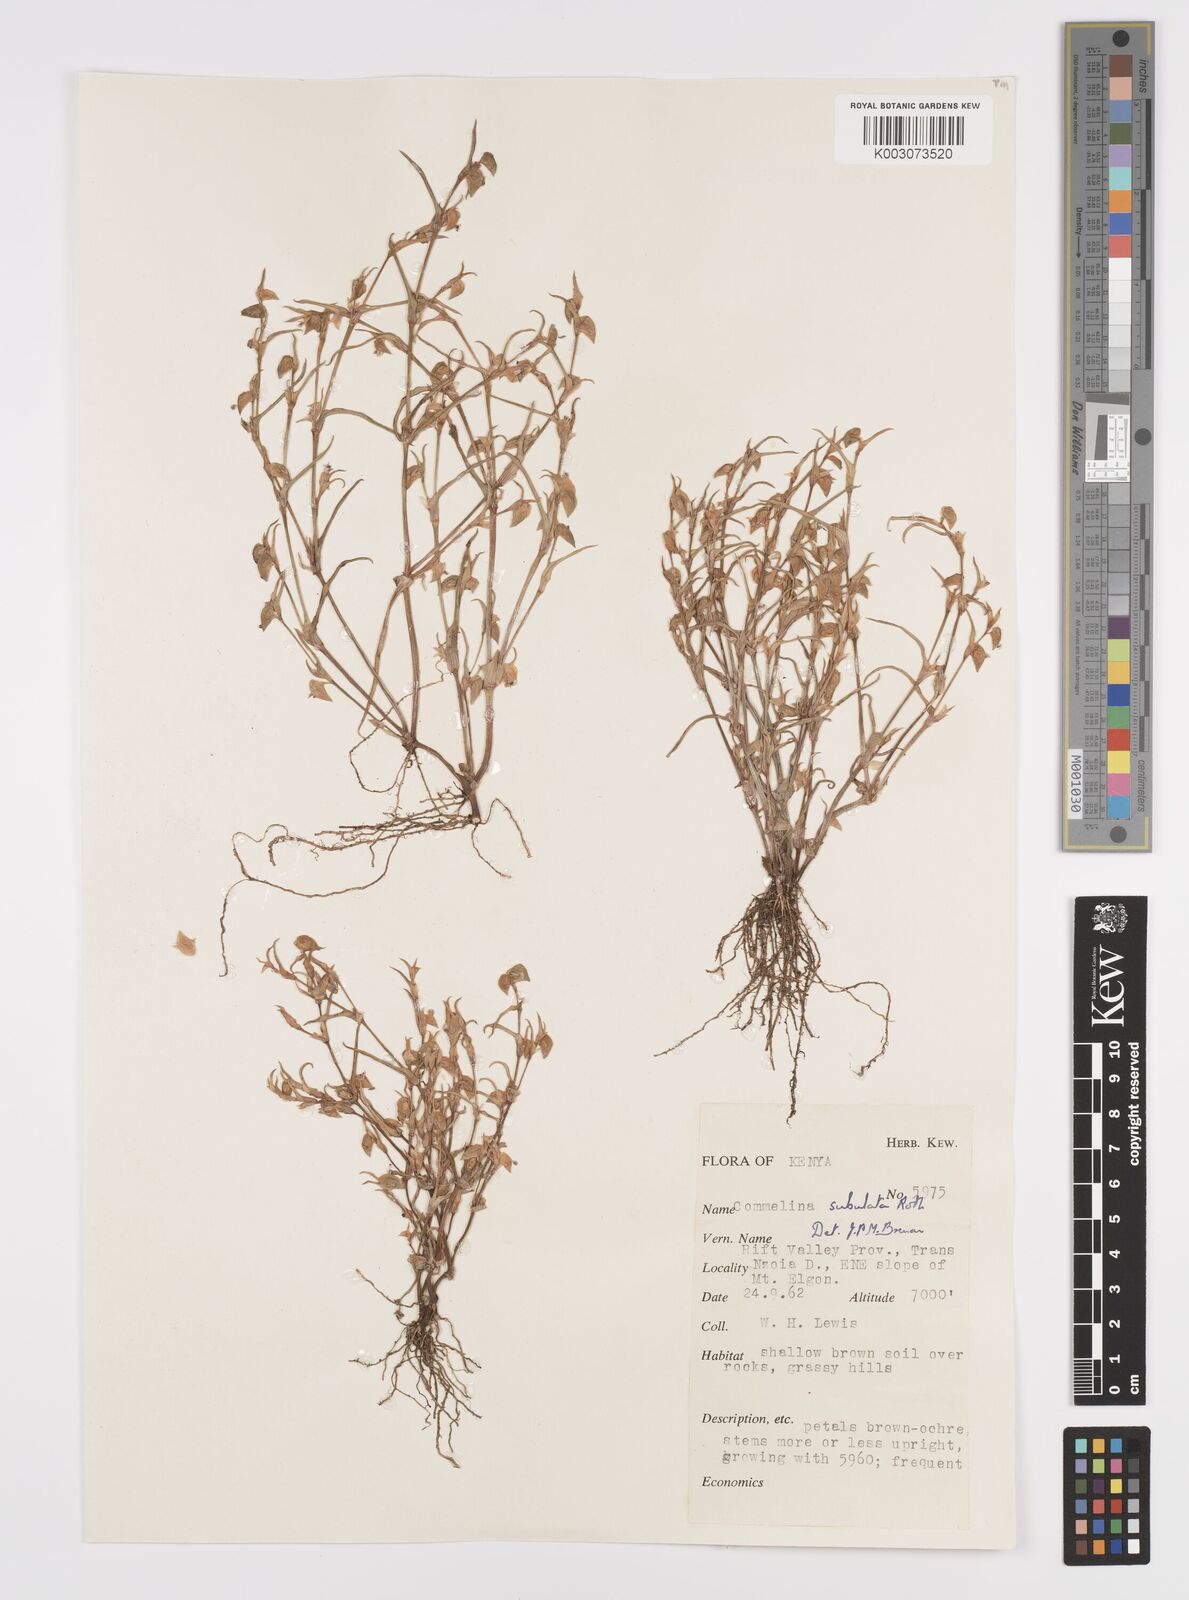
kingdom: Plantae
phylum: Tracheophyta
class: Liliopsida
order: Commelinales
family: Commelinaceae
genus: Commelina
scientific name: Commelina subulata
